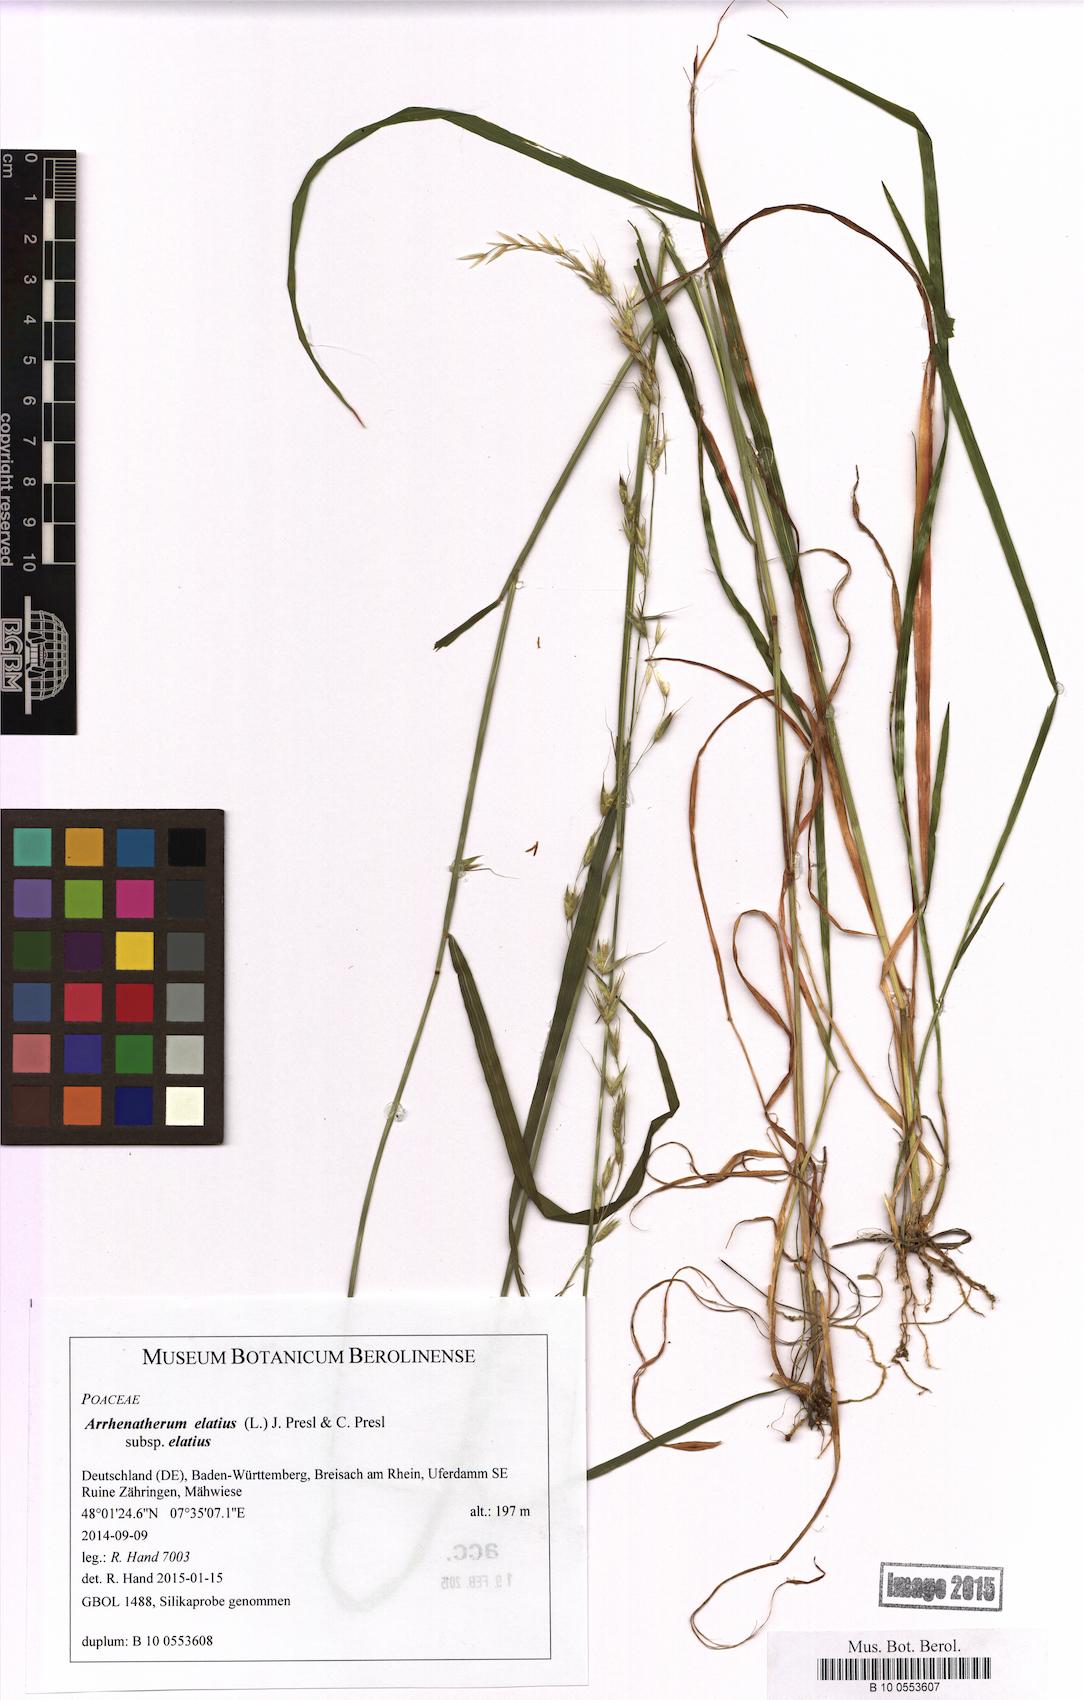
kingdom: Plantae
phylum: Tracheophyta
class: Liliopsida
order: Poales
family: Poaceae
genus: Arrhenatherum
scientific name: Arrhenatherum elatius
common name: Tall oatgrass
